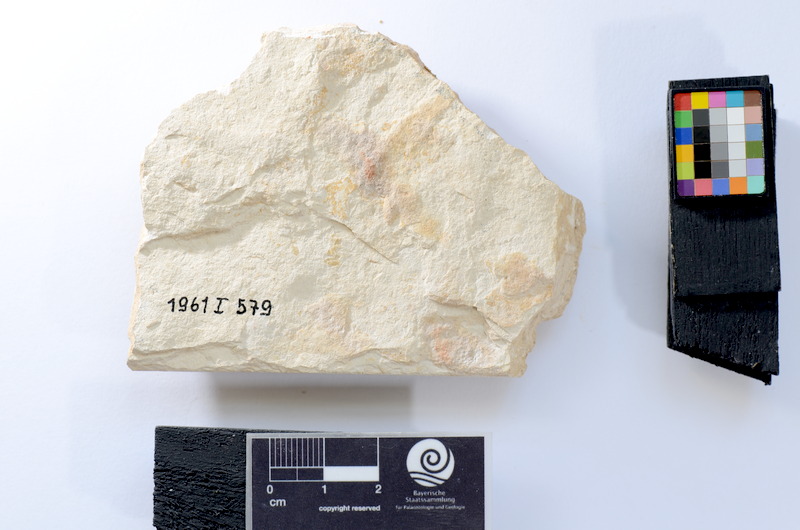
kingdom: Animalia
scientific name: Animalia
